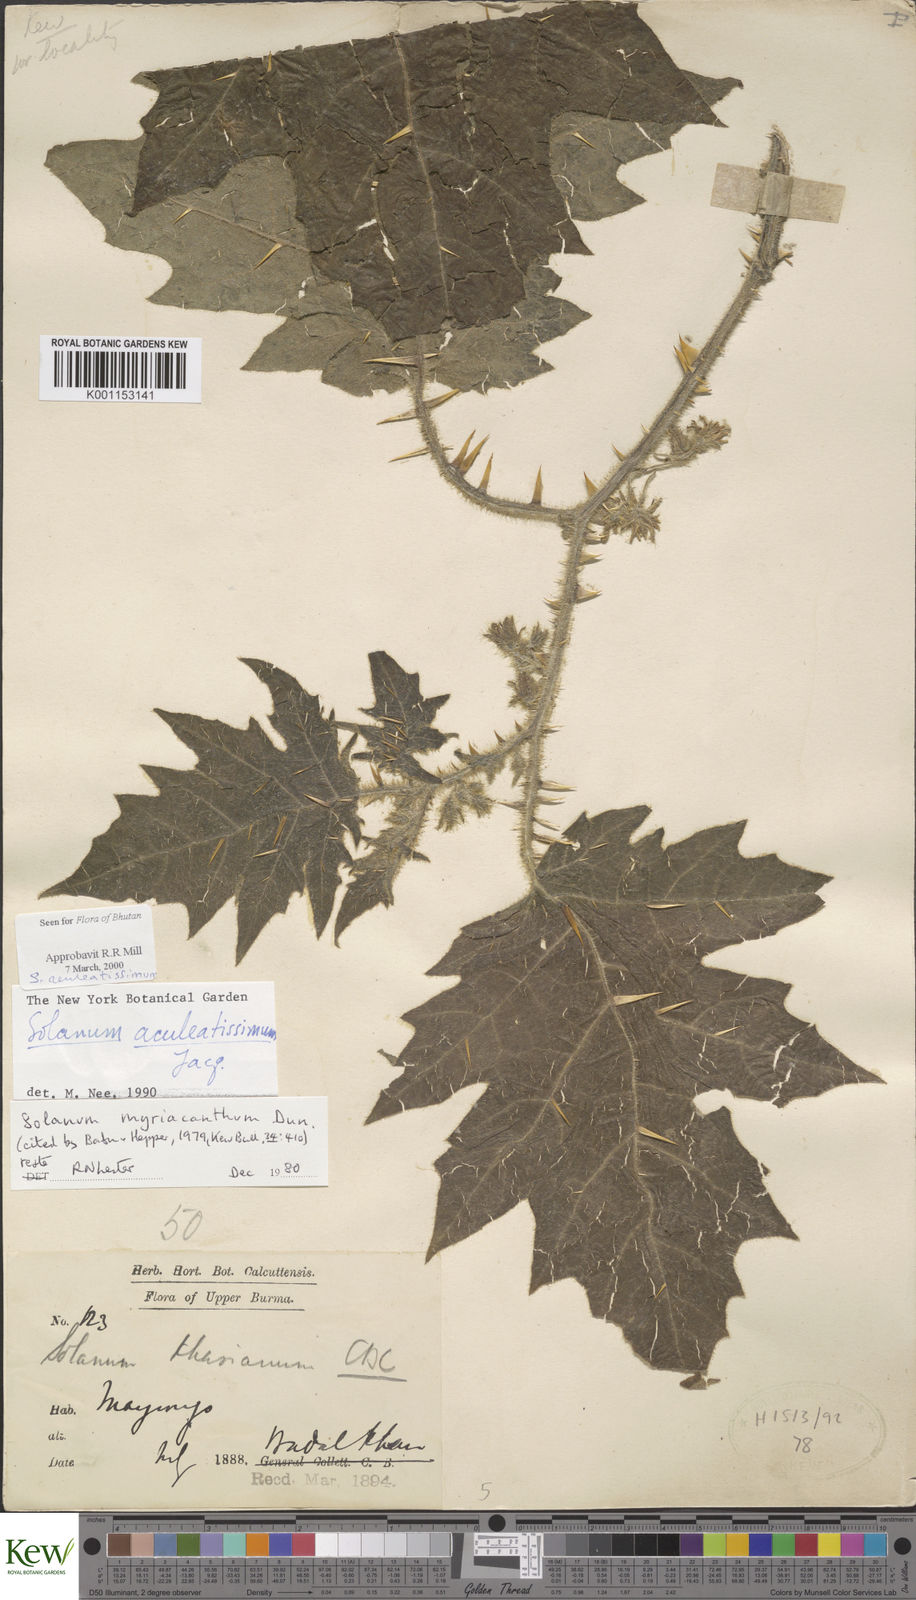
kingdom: Plantae
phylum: Tracheophyta
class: Magnoliopsida
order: Solanales
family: Solanaceae
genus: Solanum
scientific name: Solanum aculeatissimum
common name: Dutch eggplant
